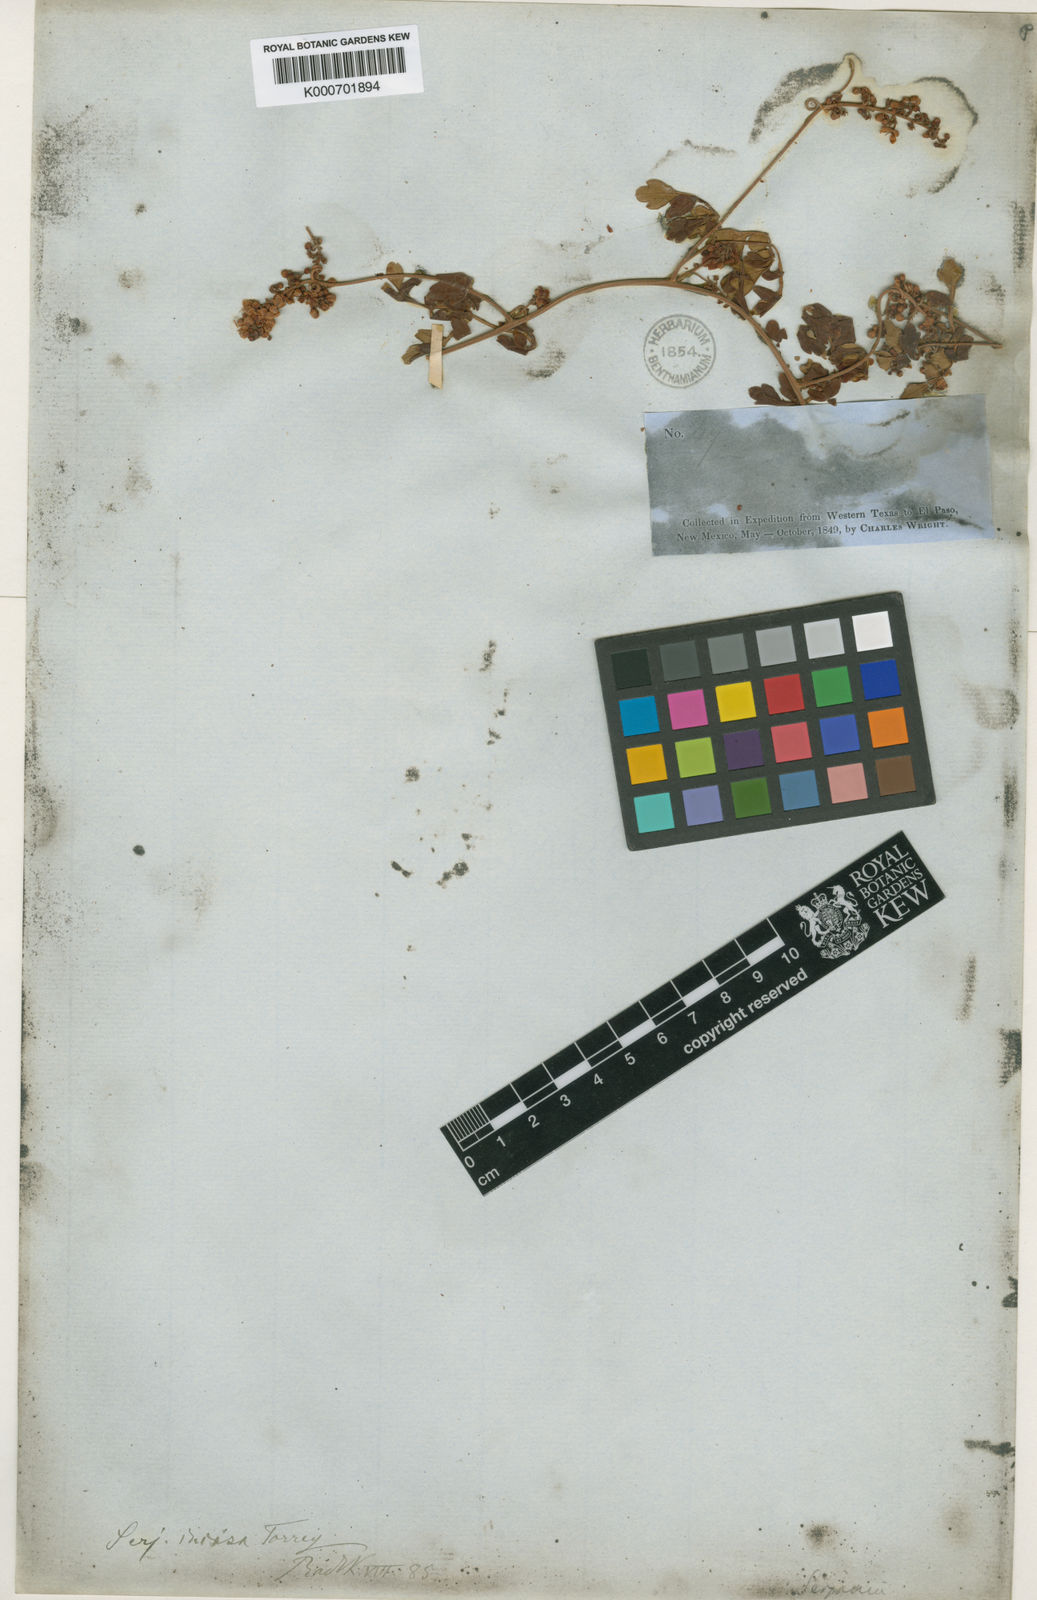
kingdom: Plantae
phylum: Tracheophyta
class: Magnoliopsida
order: Sapindales
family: Sapindaceae
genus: Serjania
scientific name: Serjania incisa
